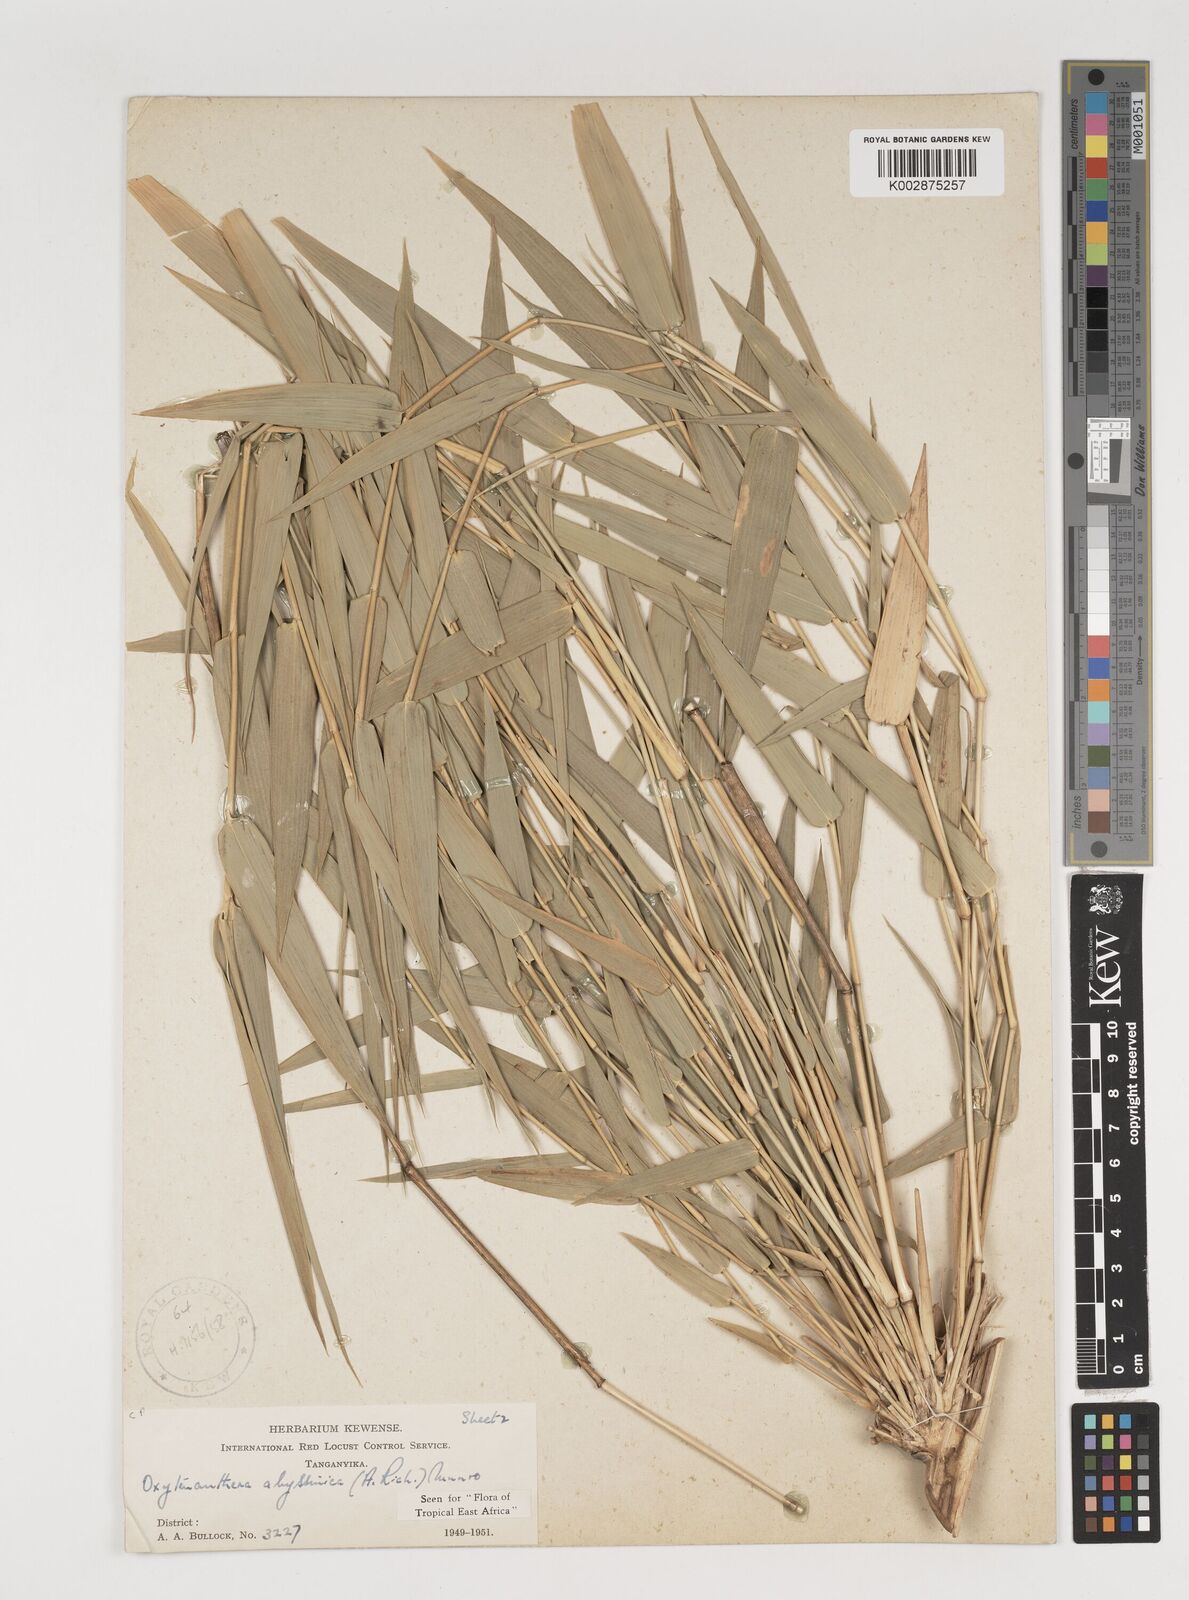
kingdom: Plantae
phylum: Tracheophyta
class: Liliopsida
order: Poales
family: Poaceae
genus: Oxytenanthera
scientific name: Oxytenanthera abyssinica
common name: Wine bamboo
